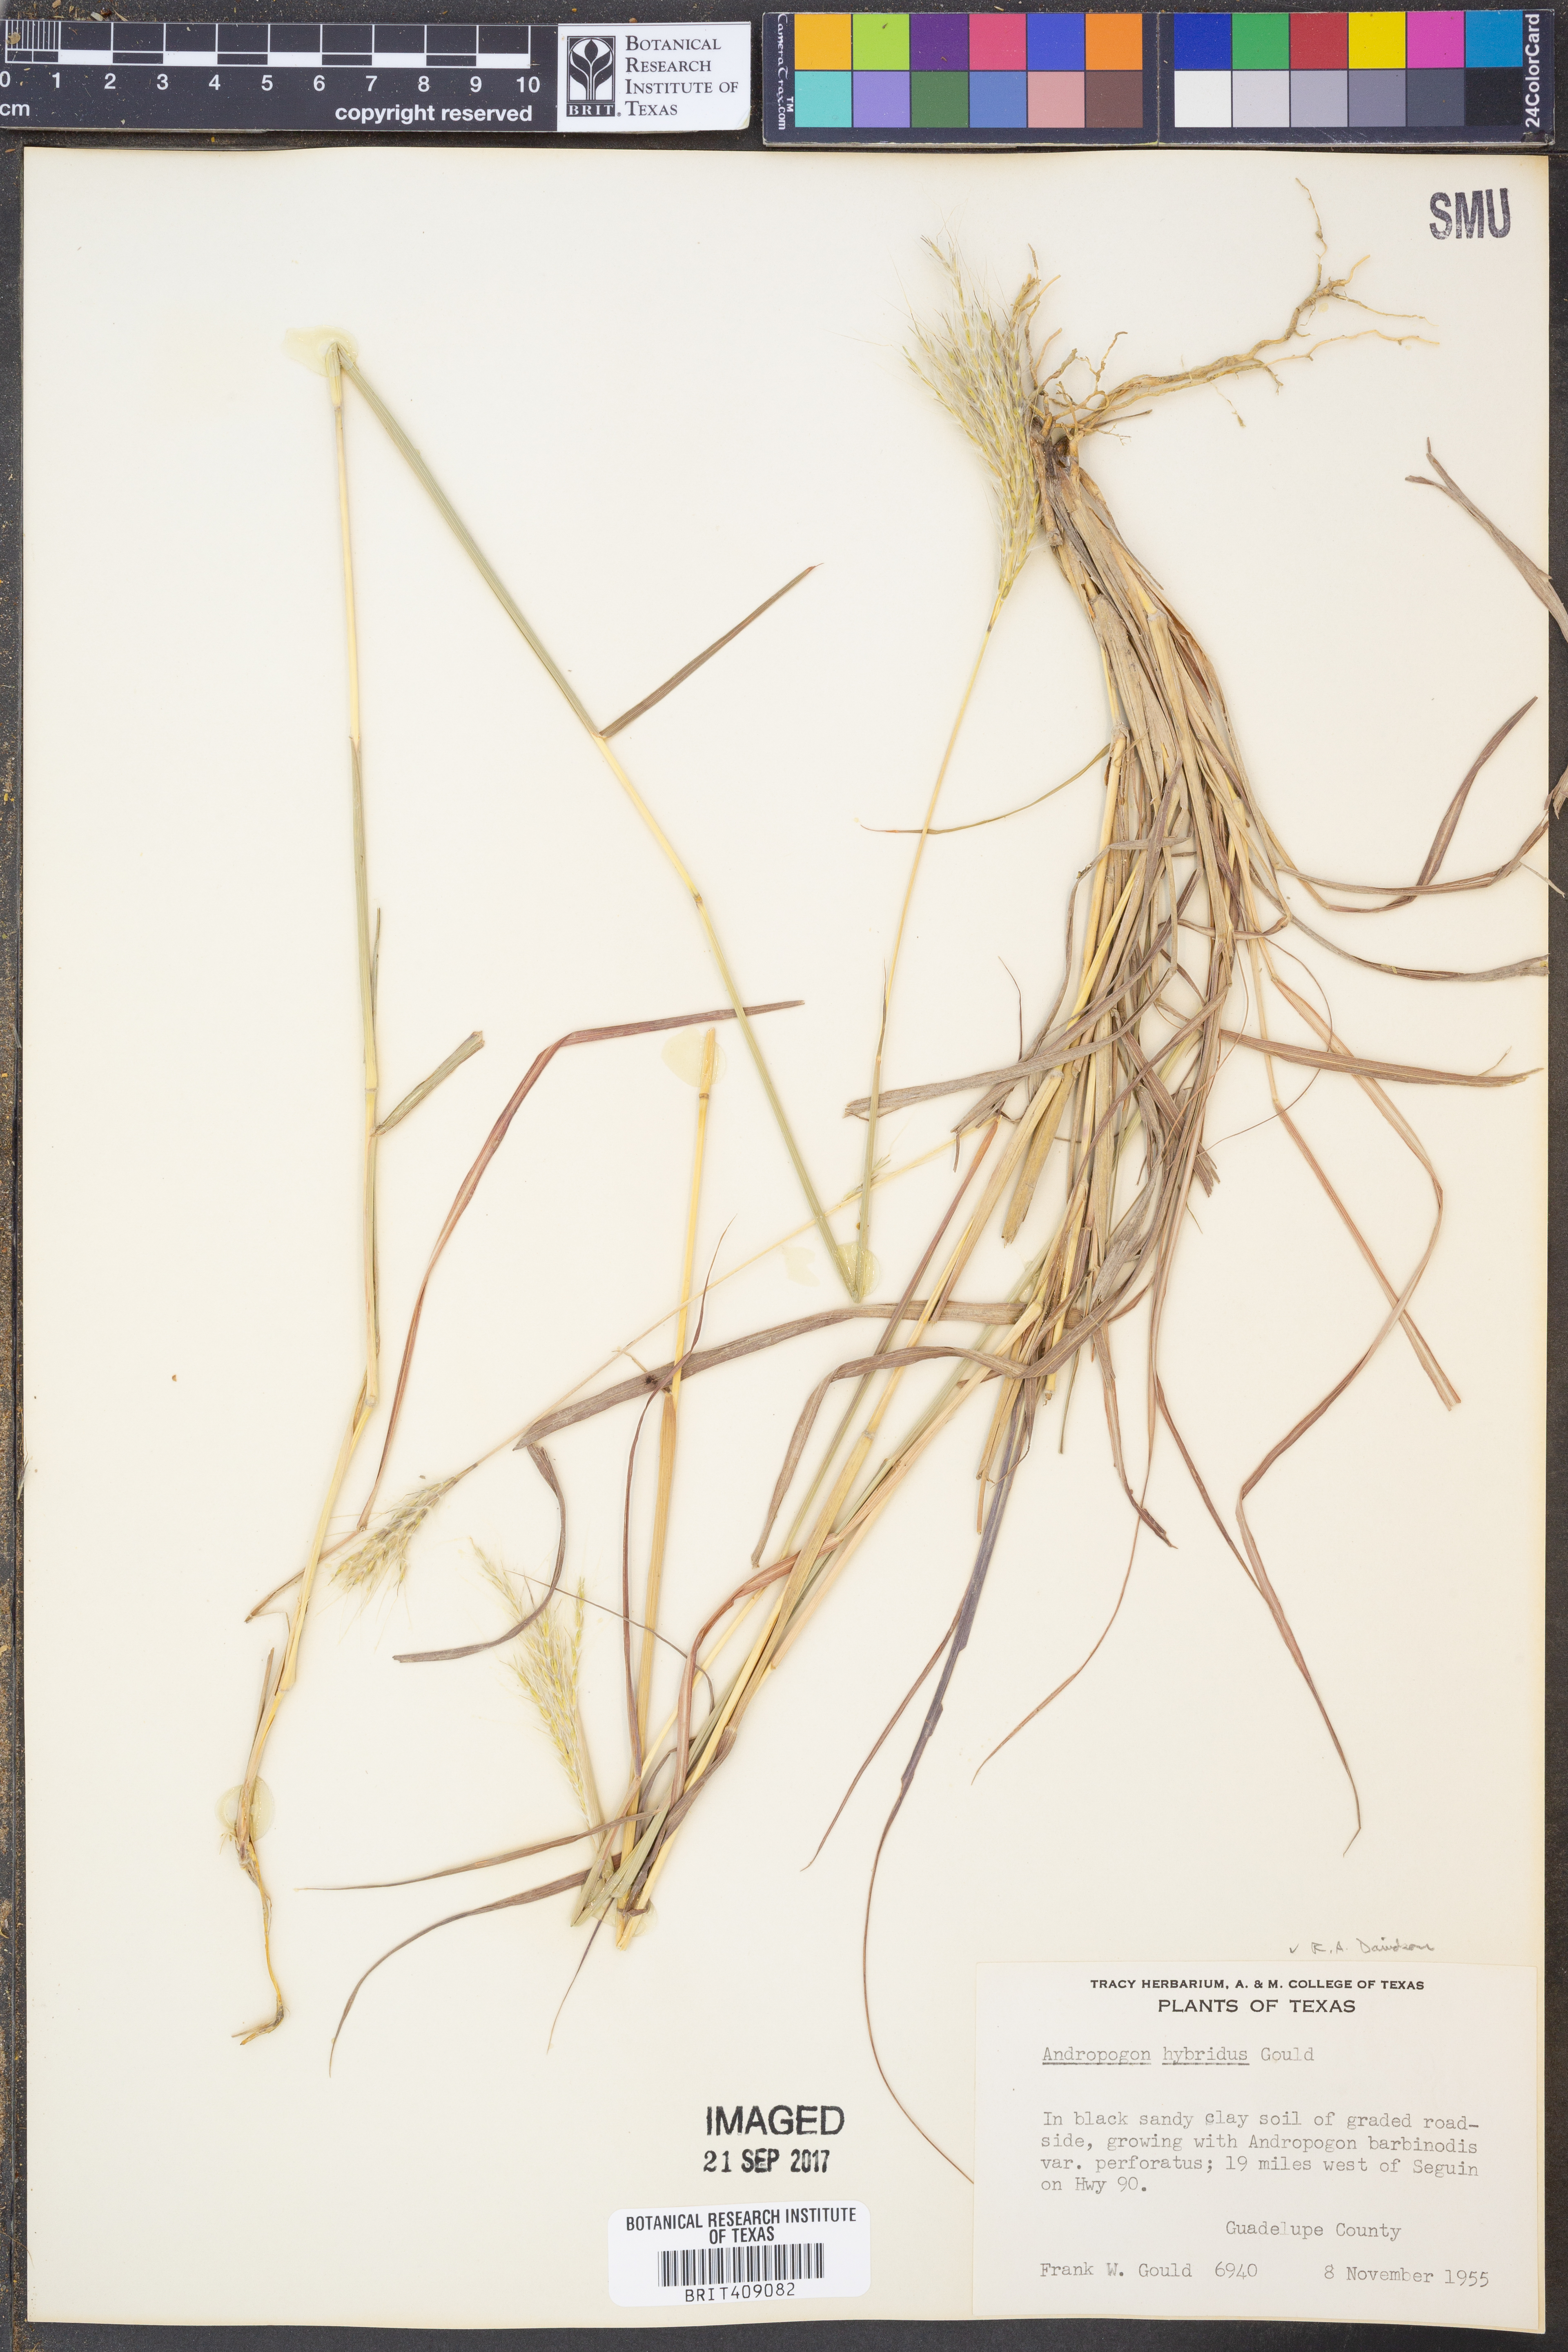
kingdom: Plantae
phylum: Tracheophyta
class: Liliopsida
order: Poales
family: Poaceae
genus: Bothriochloa
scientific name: Bothriochloa hybrida
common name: Hybrid bluestem
